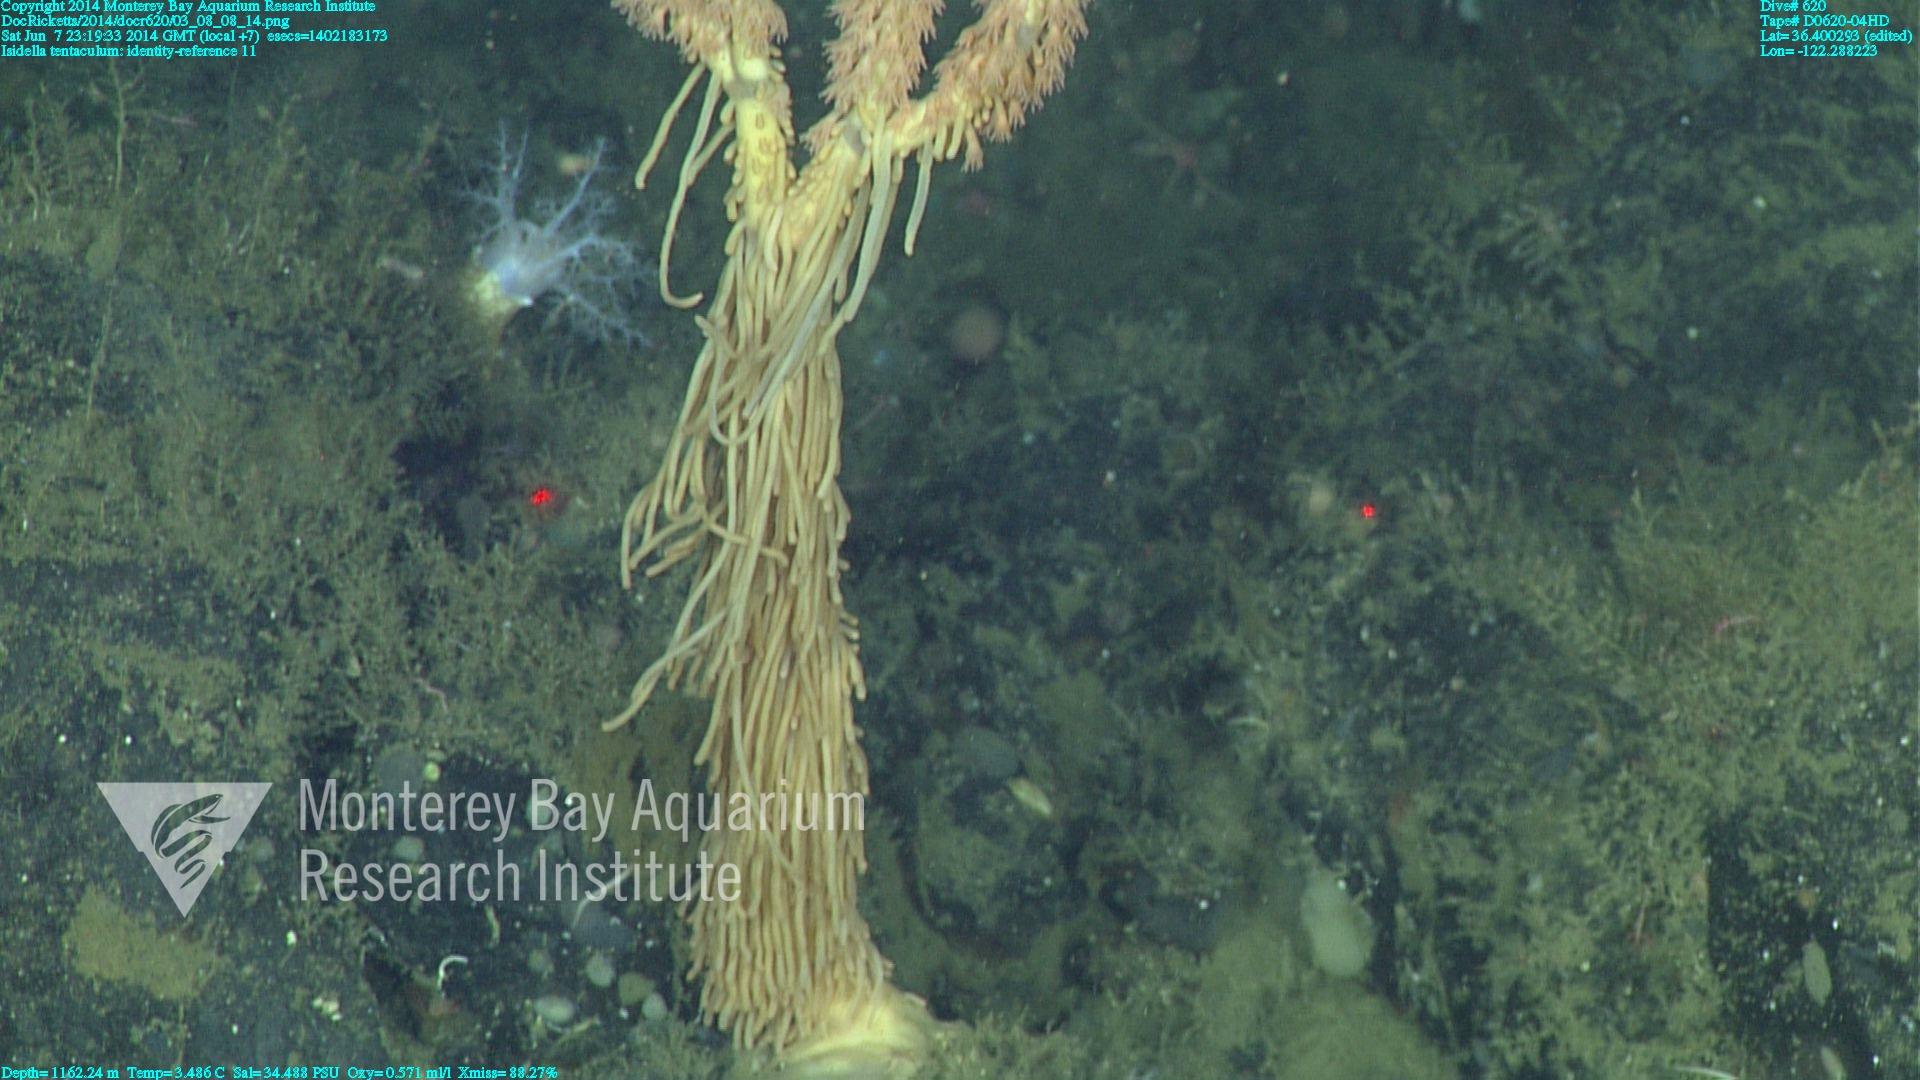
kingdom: Animalia
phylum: Cnidaria
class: Anthozoa
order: Scleralcyonacea
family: Keratoisididae
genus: Isidella
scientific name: Isidella tentaculum
